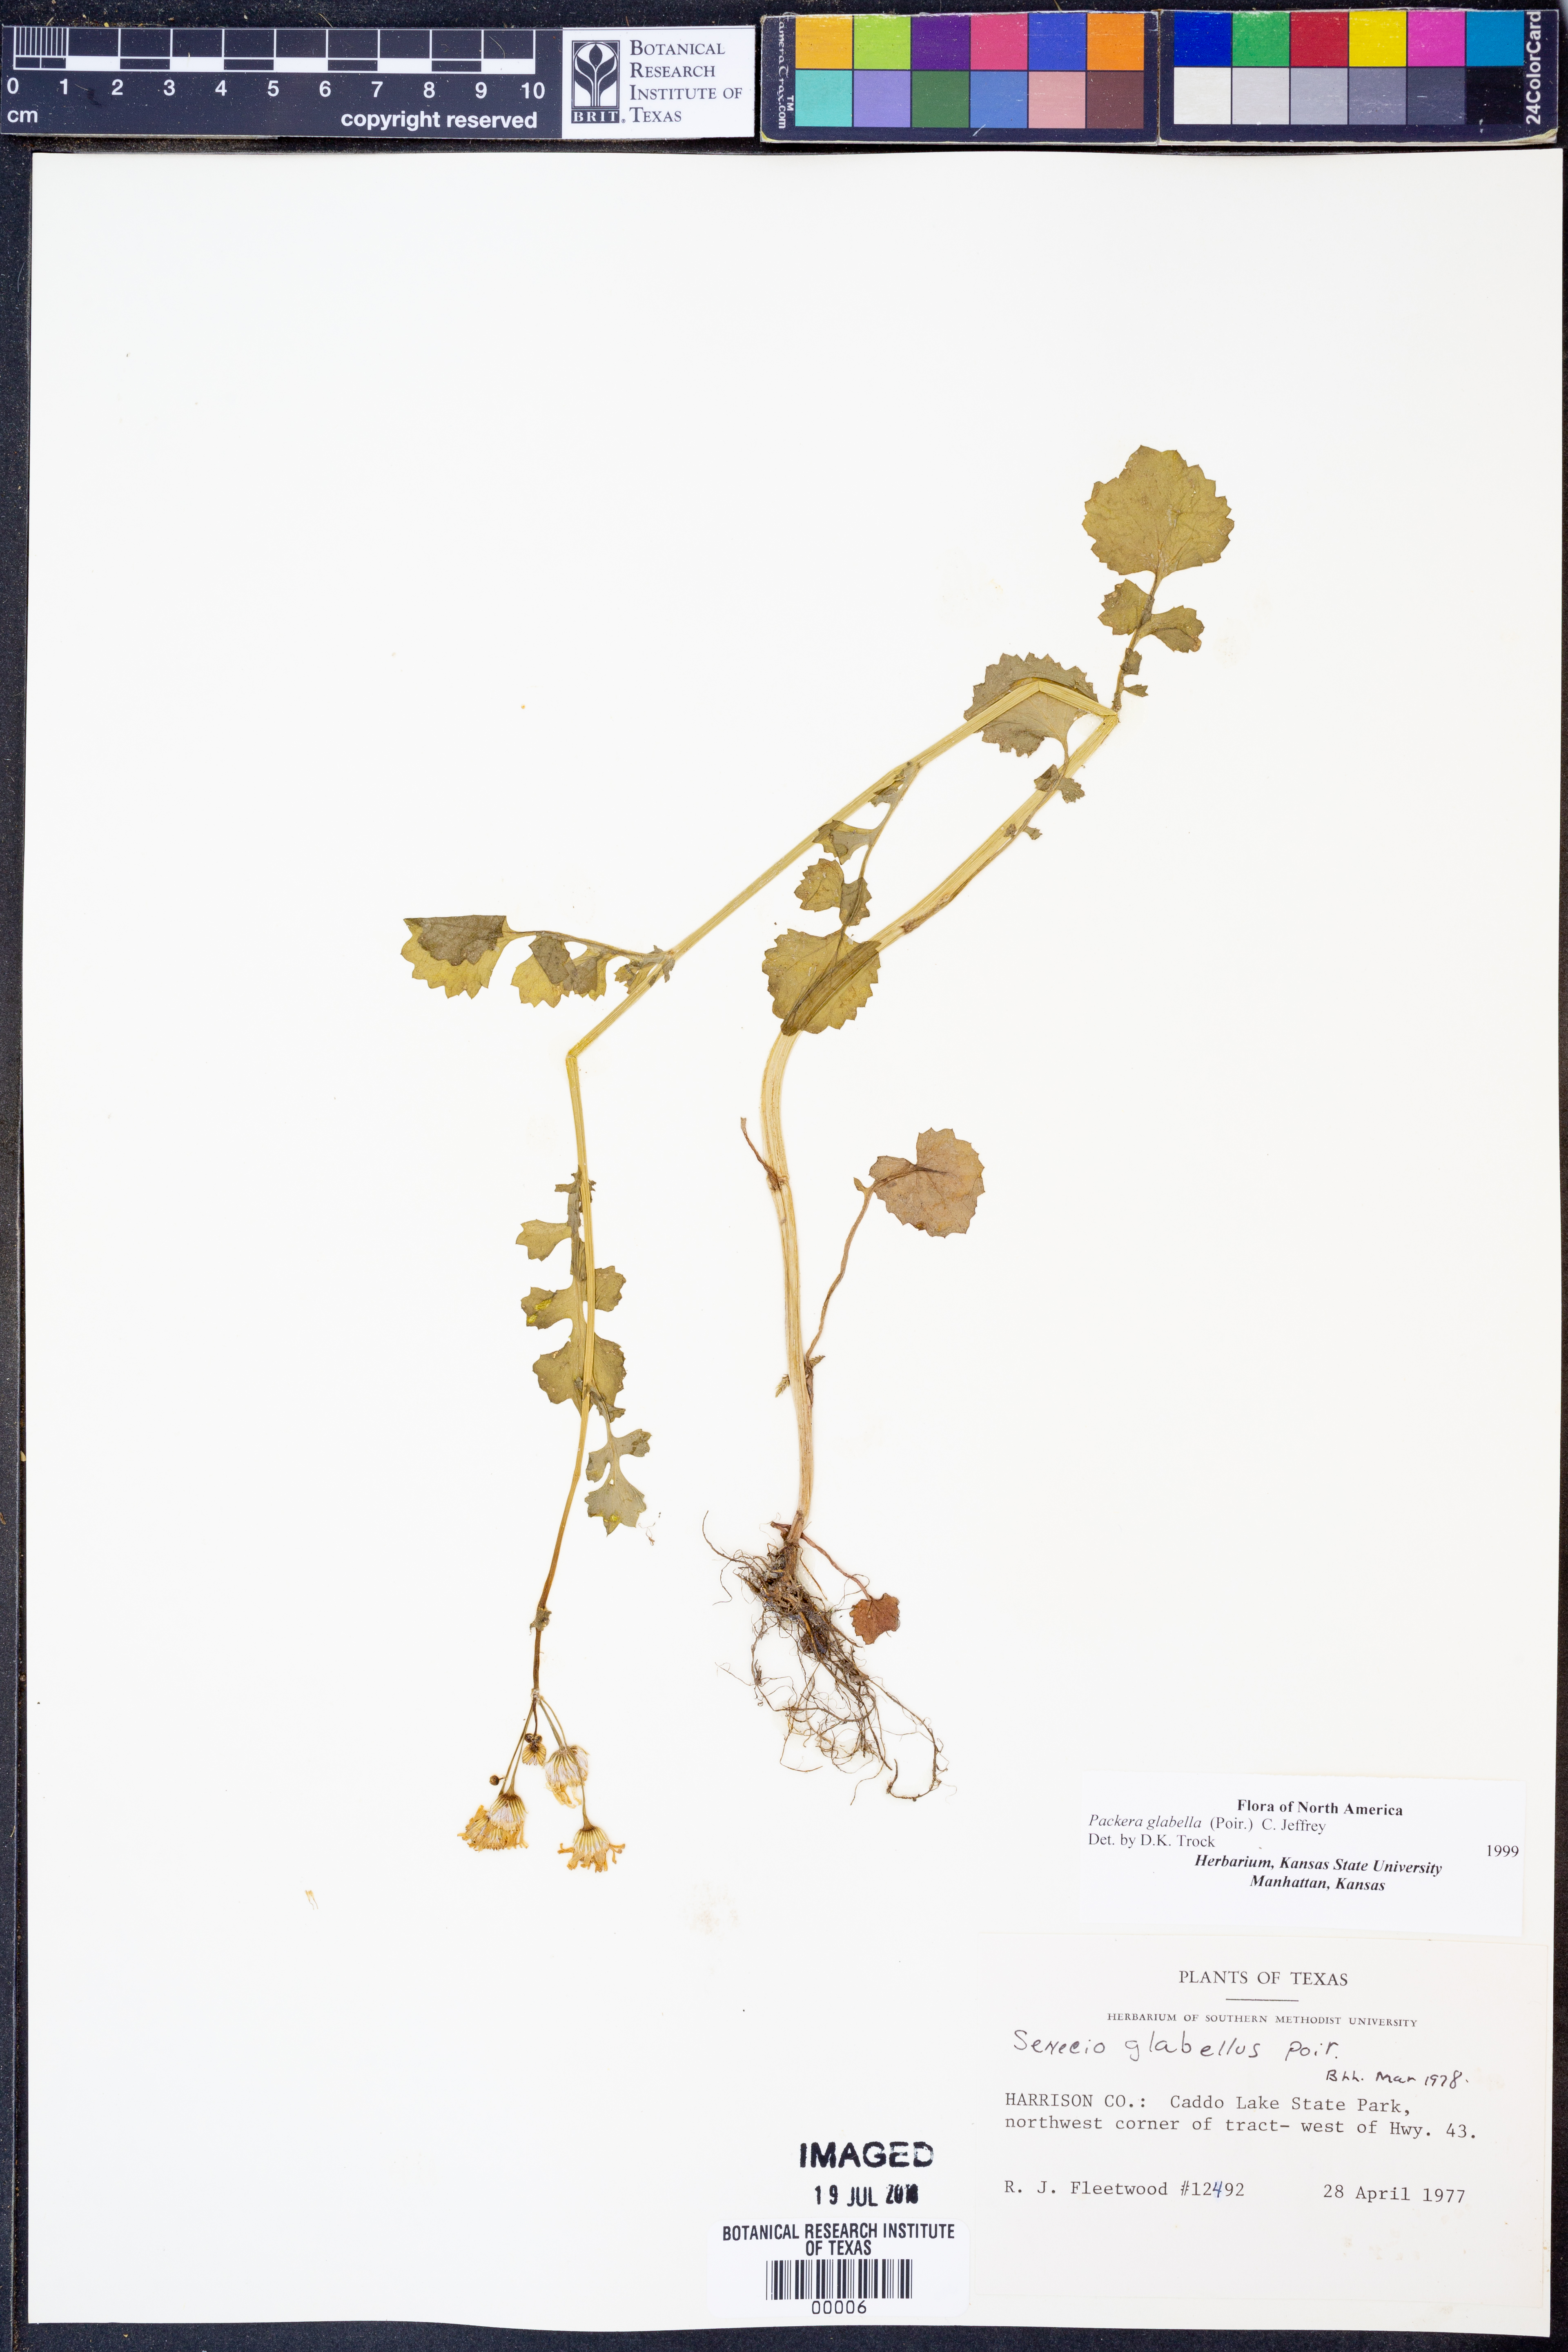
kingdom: Plantae
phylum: Tracheophyta
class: Magnoliopsida
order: Asterales
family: Asteraceae
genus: Packera
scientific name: Packera glabella
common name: Butterweed
